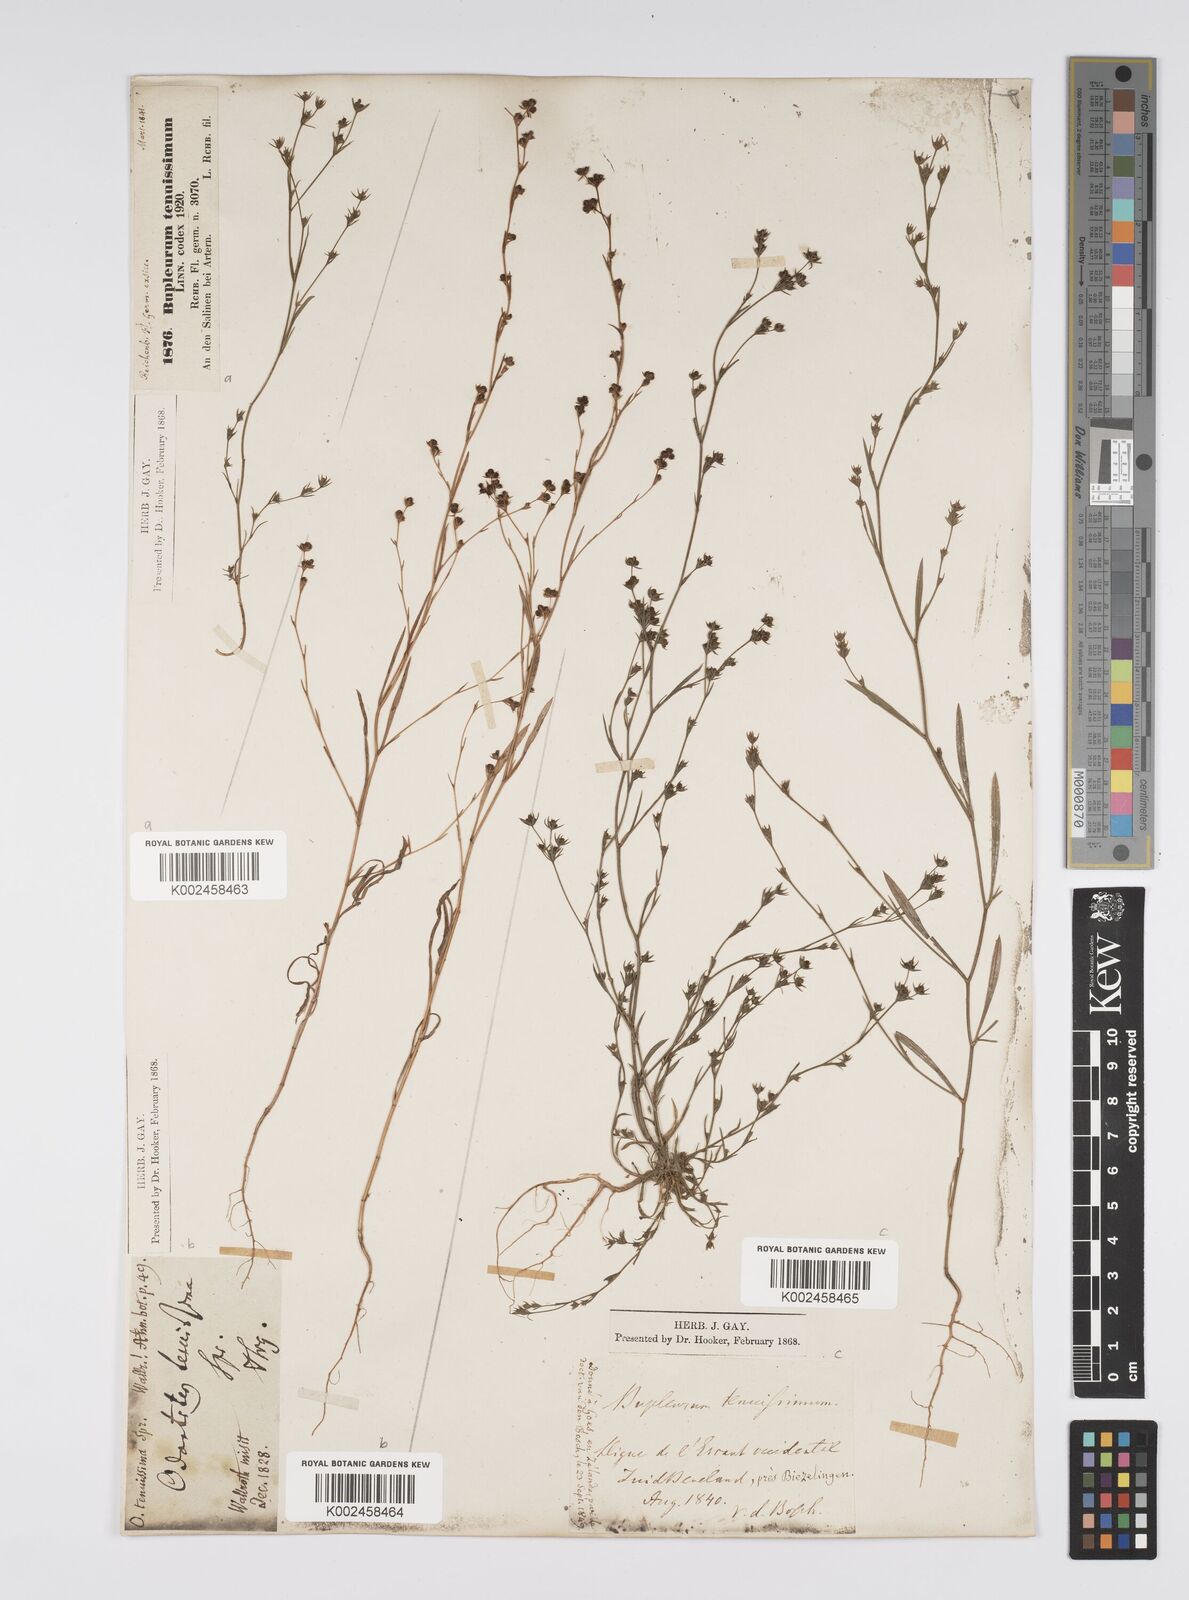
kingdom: Plantae
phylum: Tracheophyta
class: Magnoliopsida
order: Apiales
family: Apiaceae
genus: Bupleurum
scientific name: Bupleurum tenuissimum
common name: Slender hare's-ear
